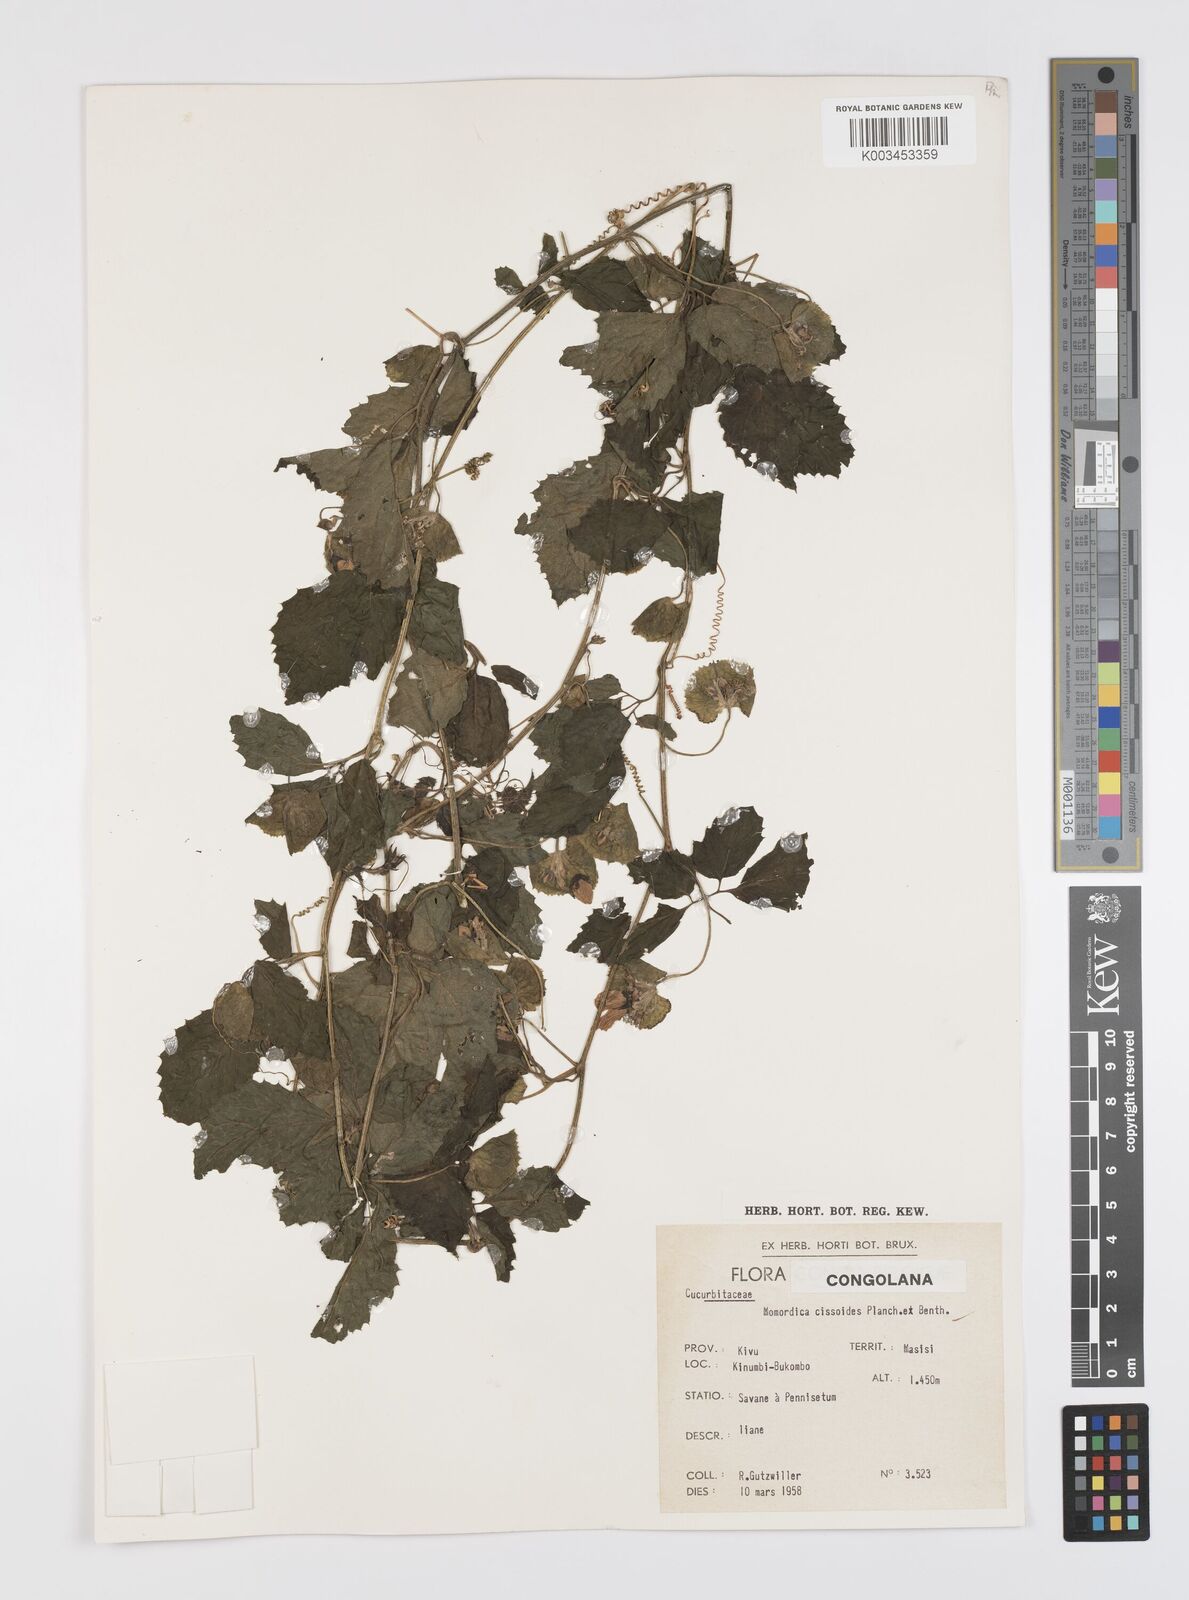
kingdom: Plantae
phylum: Tracheophyta
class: Magnoliopsida
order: Cucurbitales
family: Cucurbitaceae
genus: Momordica
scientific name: Momordica cissoides
